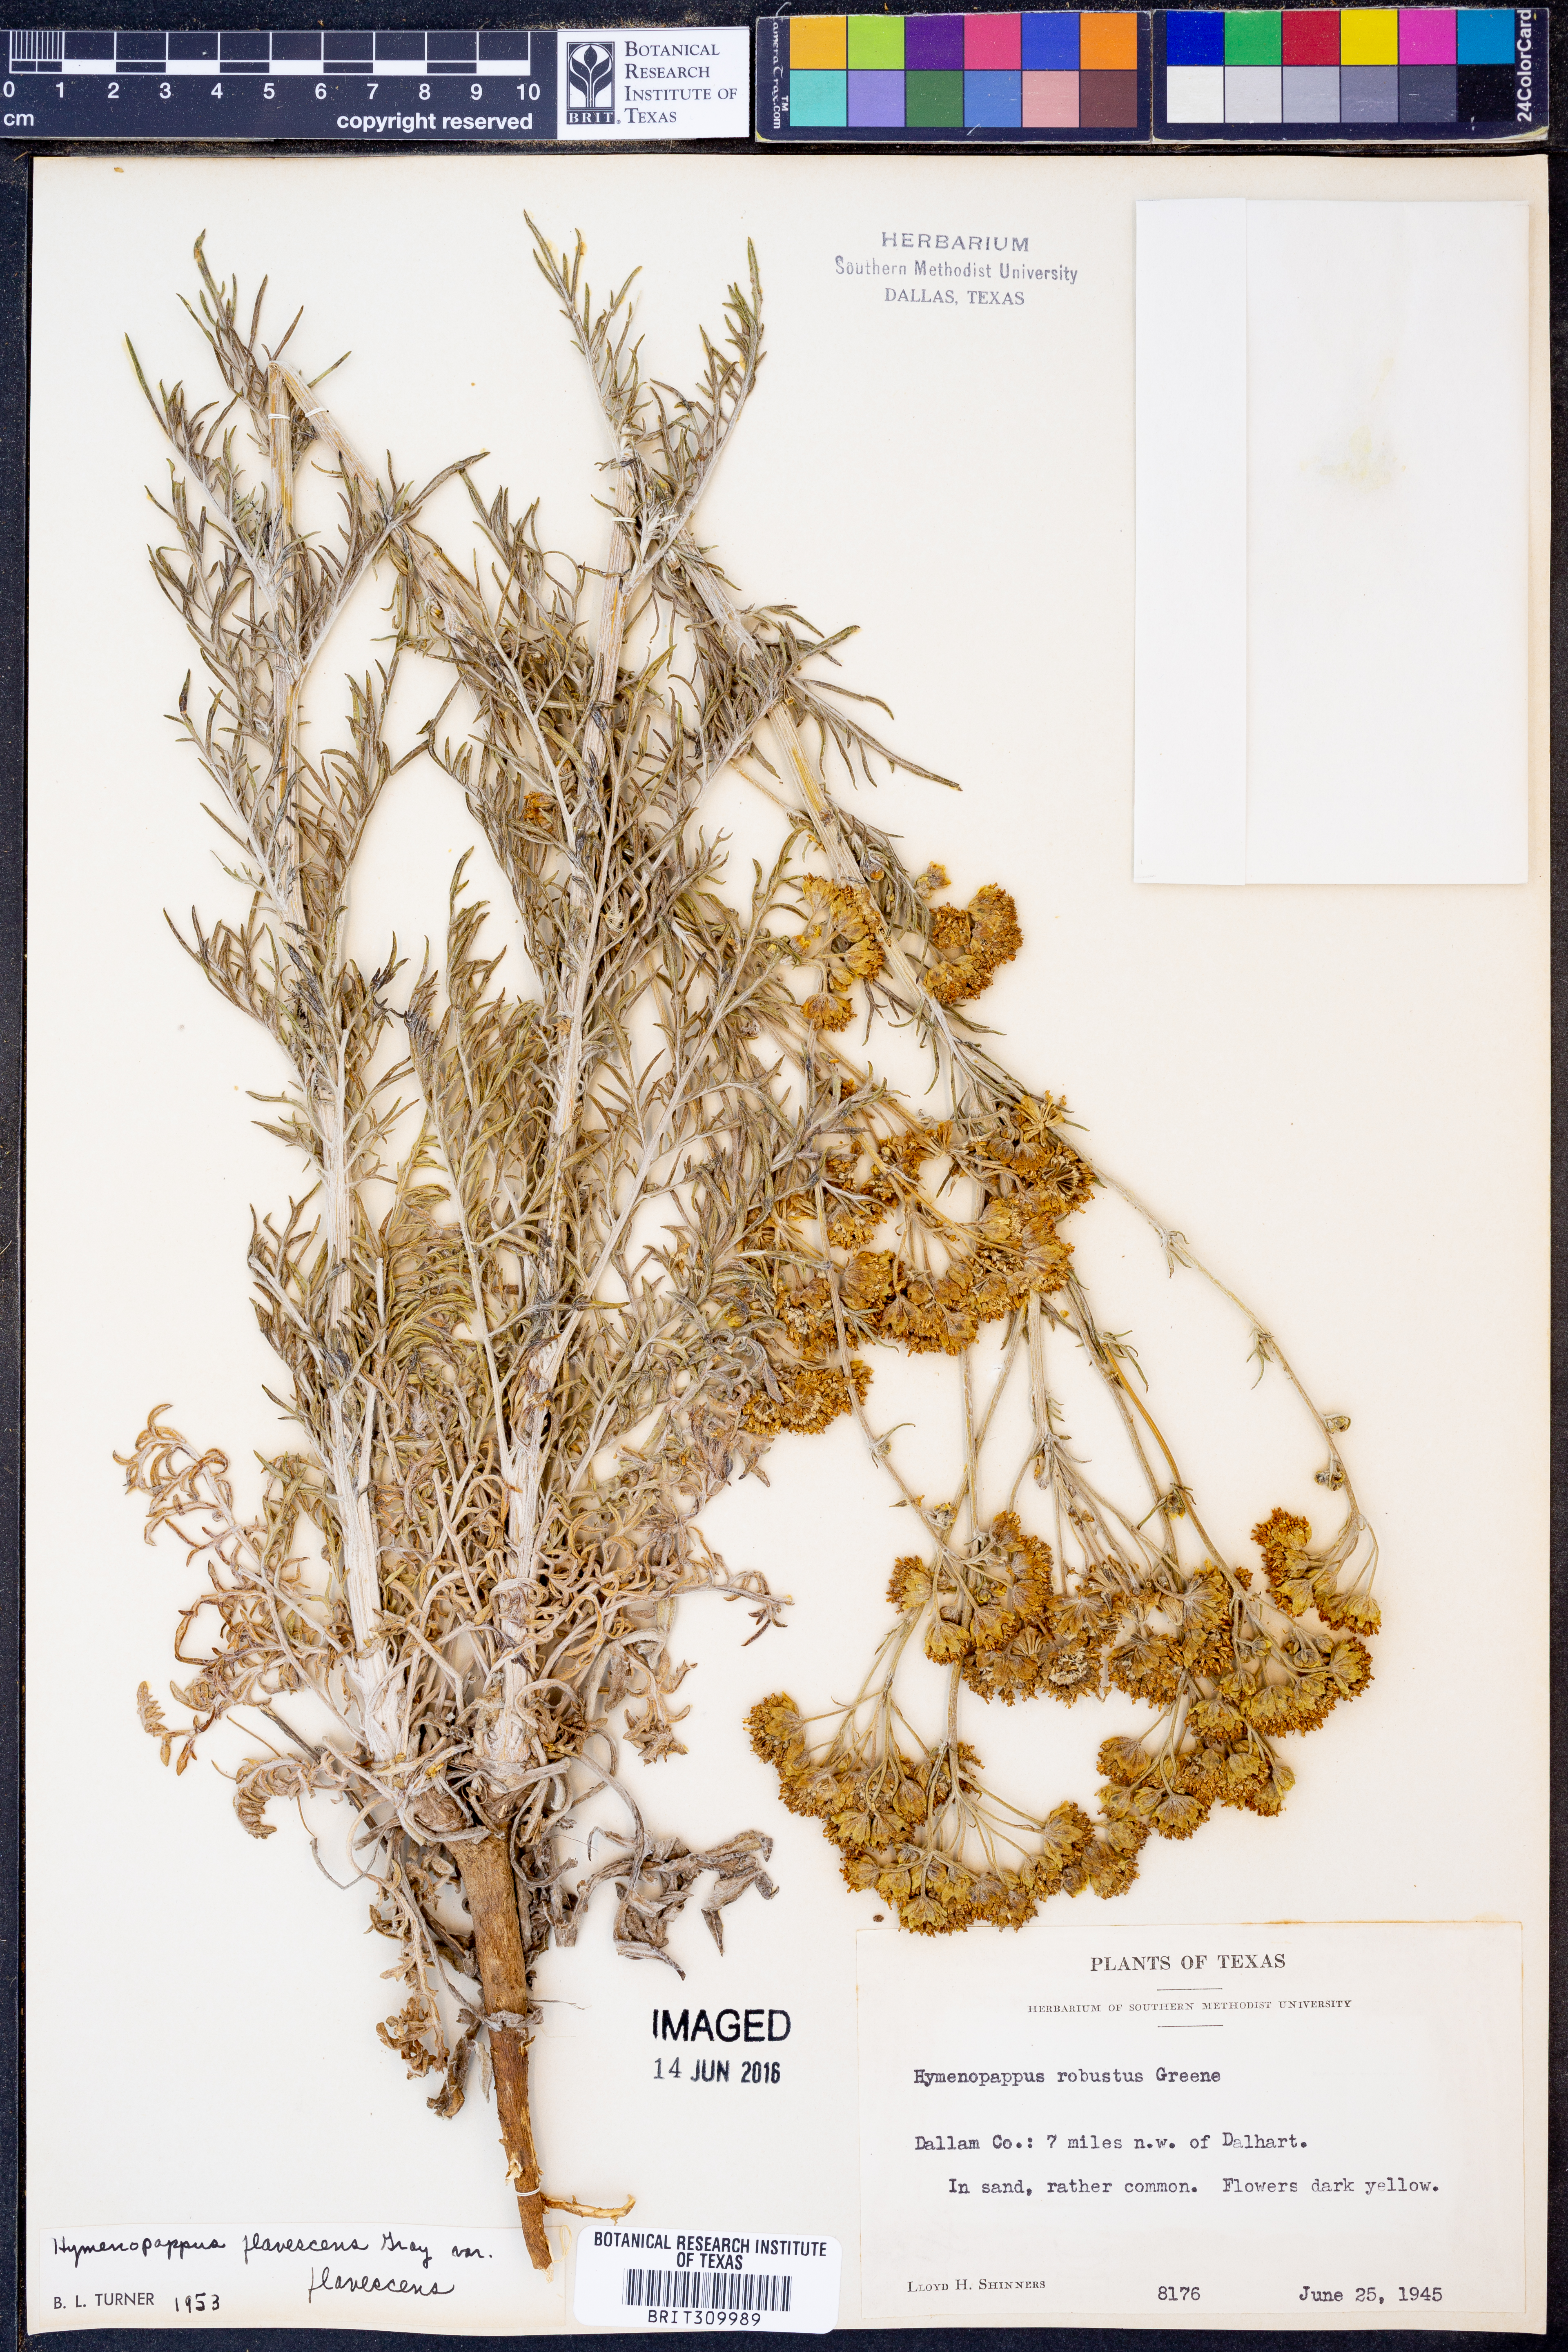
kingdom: Plantae
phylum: Tracheophyta
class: Magnoliopsida
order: Asterales
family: Asteraceae
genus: Hymenopappus
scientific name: Hymenopappus flavescens
